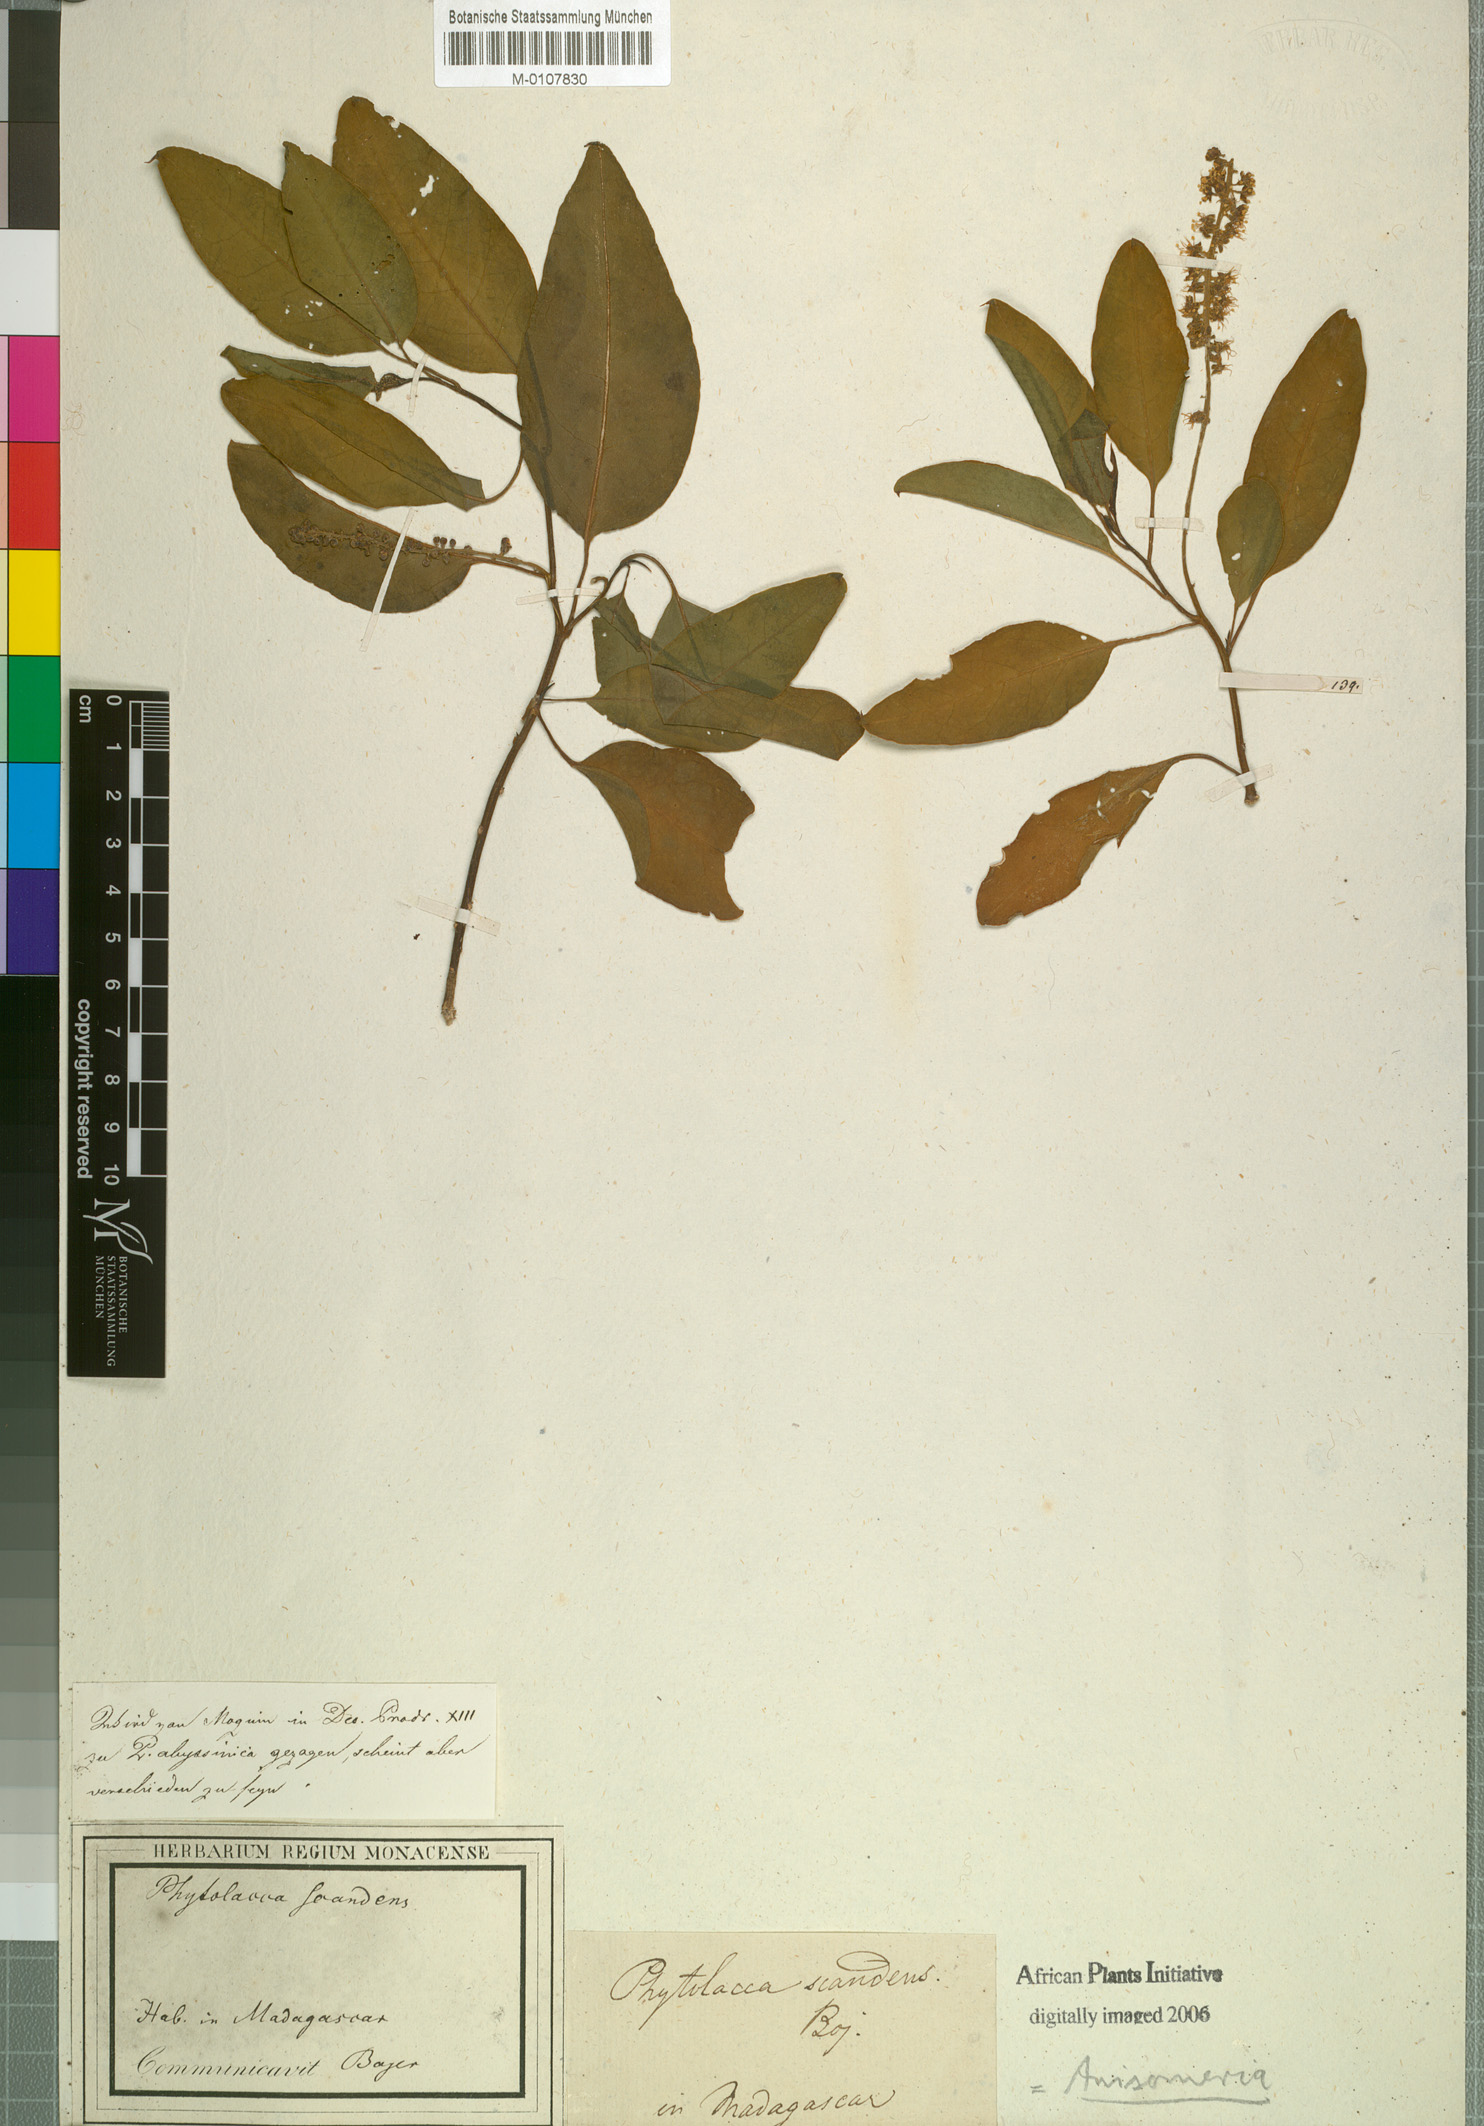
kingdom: Plantae
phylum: Tracheophyta
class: Magnoliopsida
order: Caryophyllales
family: Phytolaccaceae
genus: Phytolacca
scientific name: Phytolacca dodecandra
